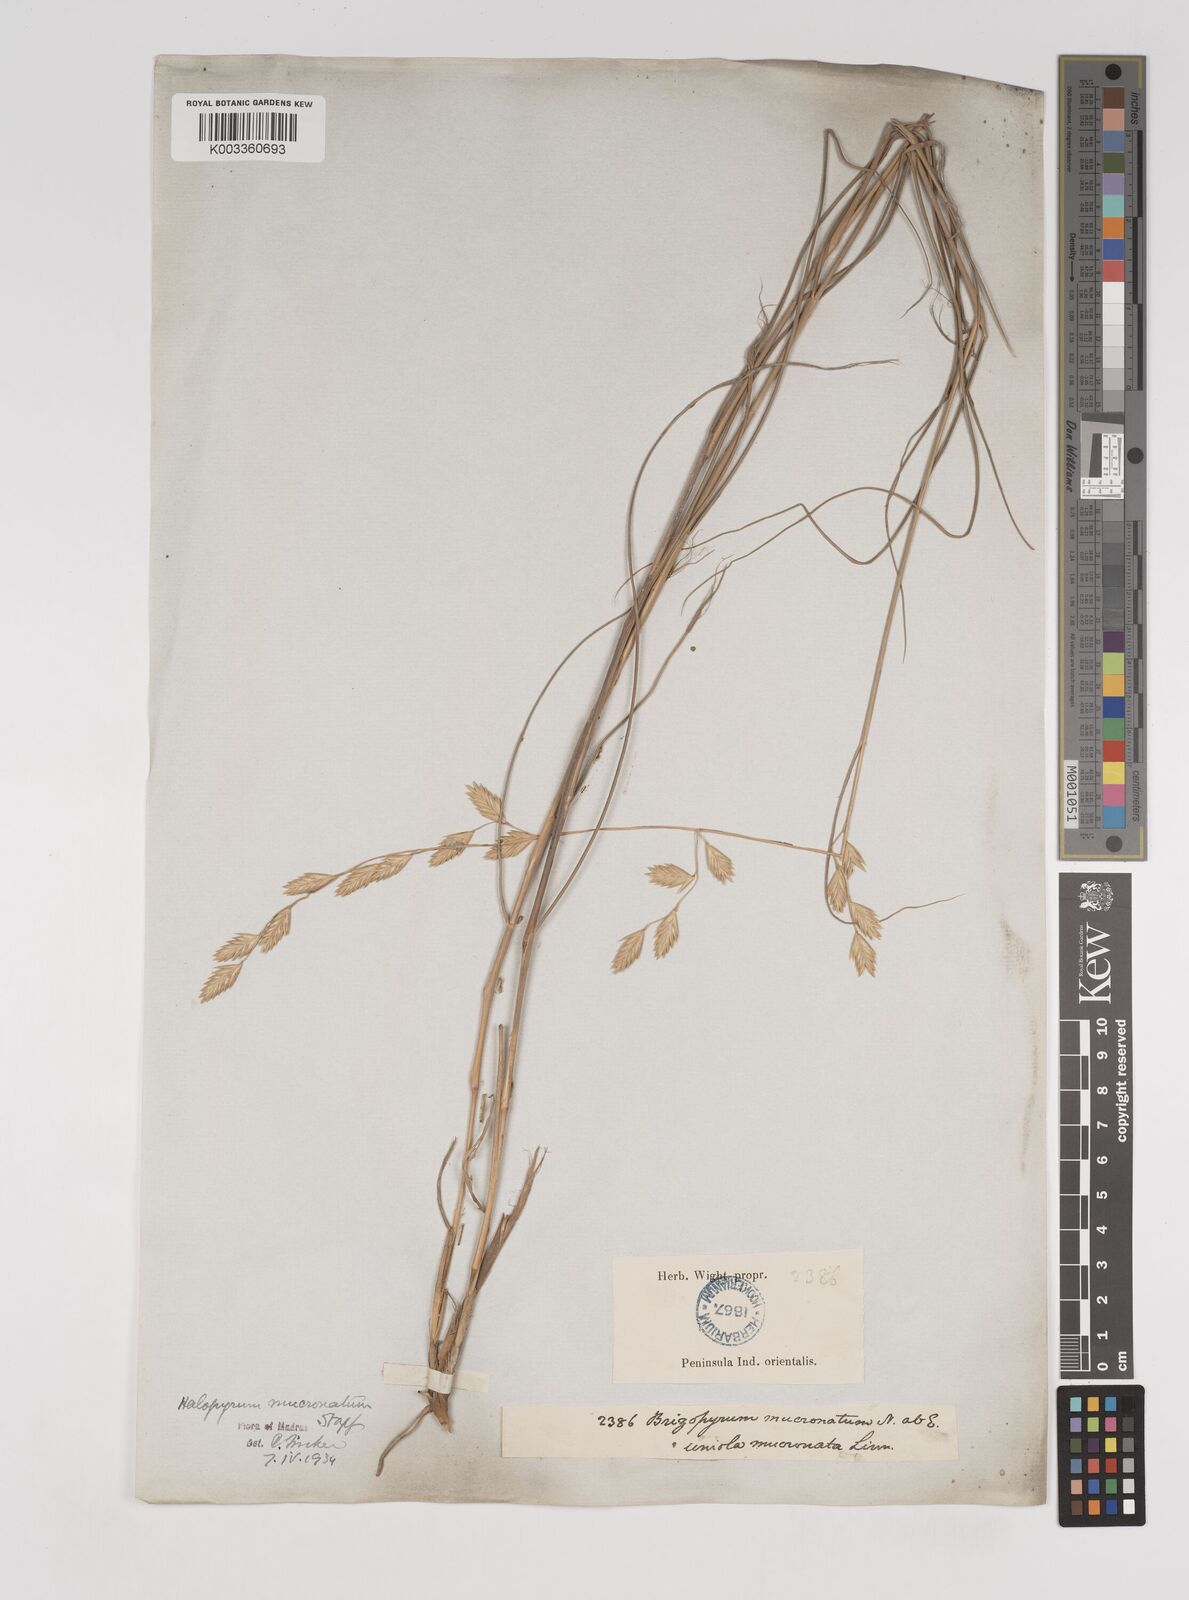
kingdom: Plantae
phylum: Tracheophyta
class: Liliopsida
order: Poales
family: Poaceae
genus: Halopyrum
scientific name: Halopyrum mucronatum
